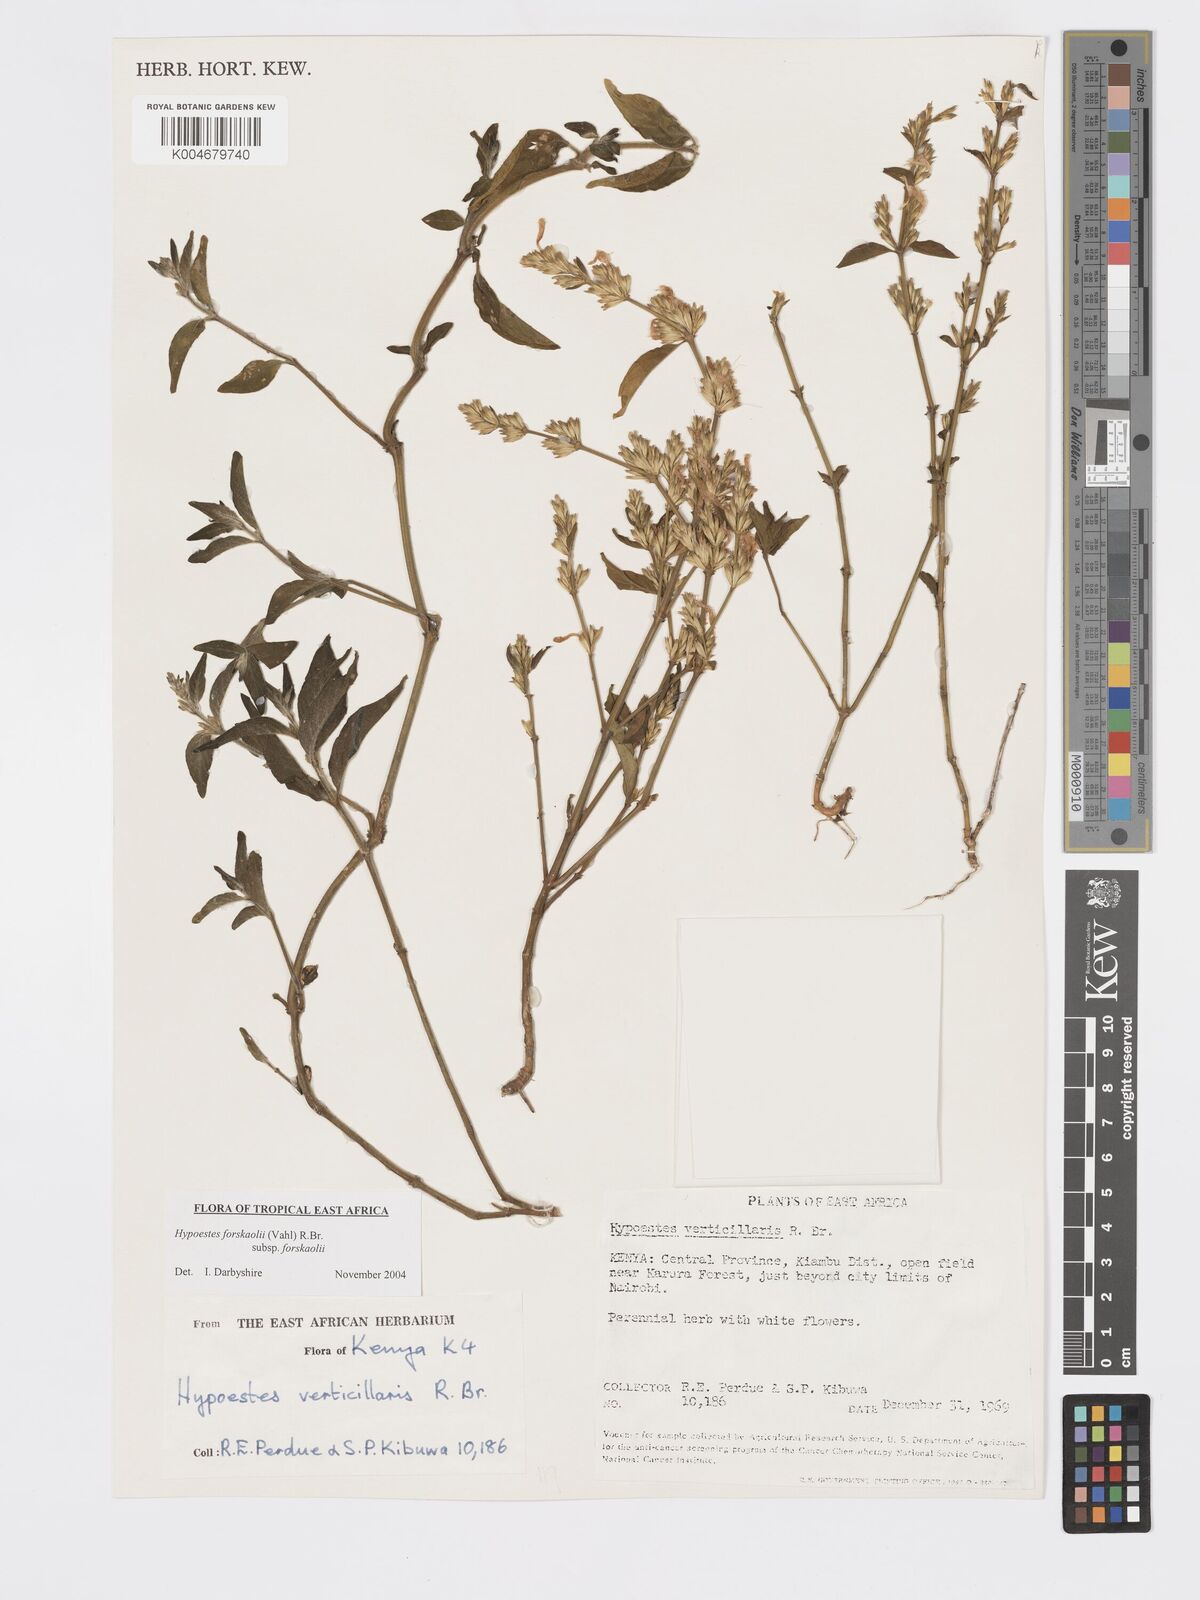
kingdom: Plantae
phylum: Tracheophyta
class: Magnoliopsida
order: Lamiales
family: Acanthaceae
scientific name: Acanthaceae
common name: Acanthaceae
